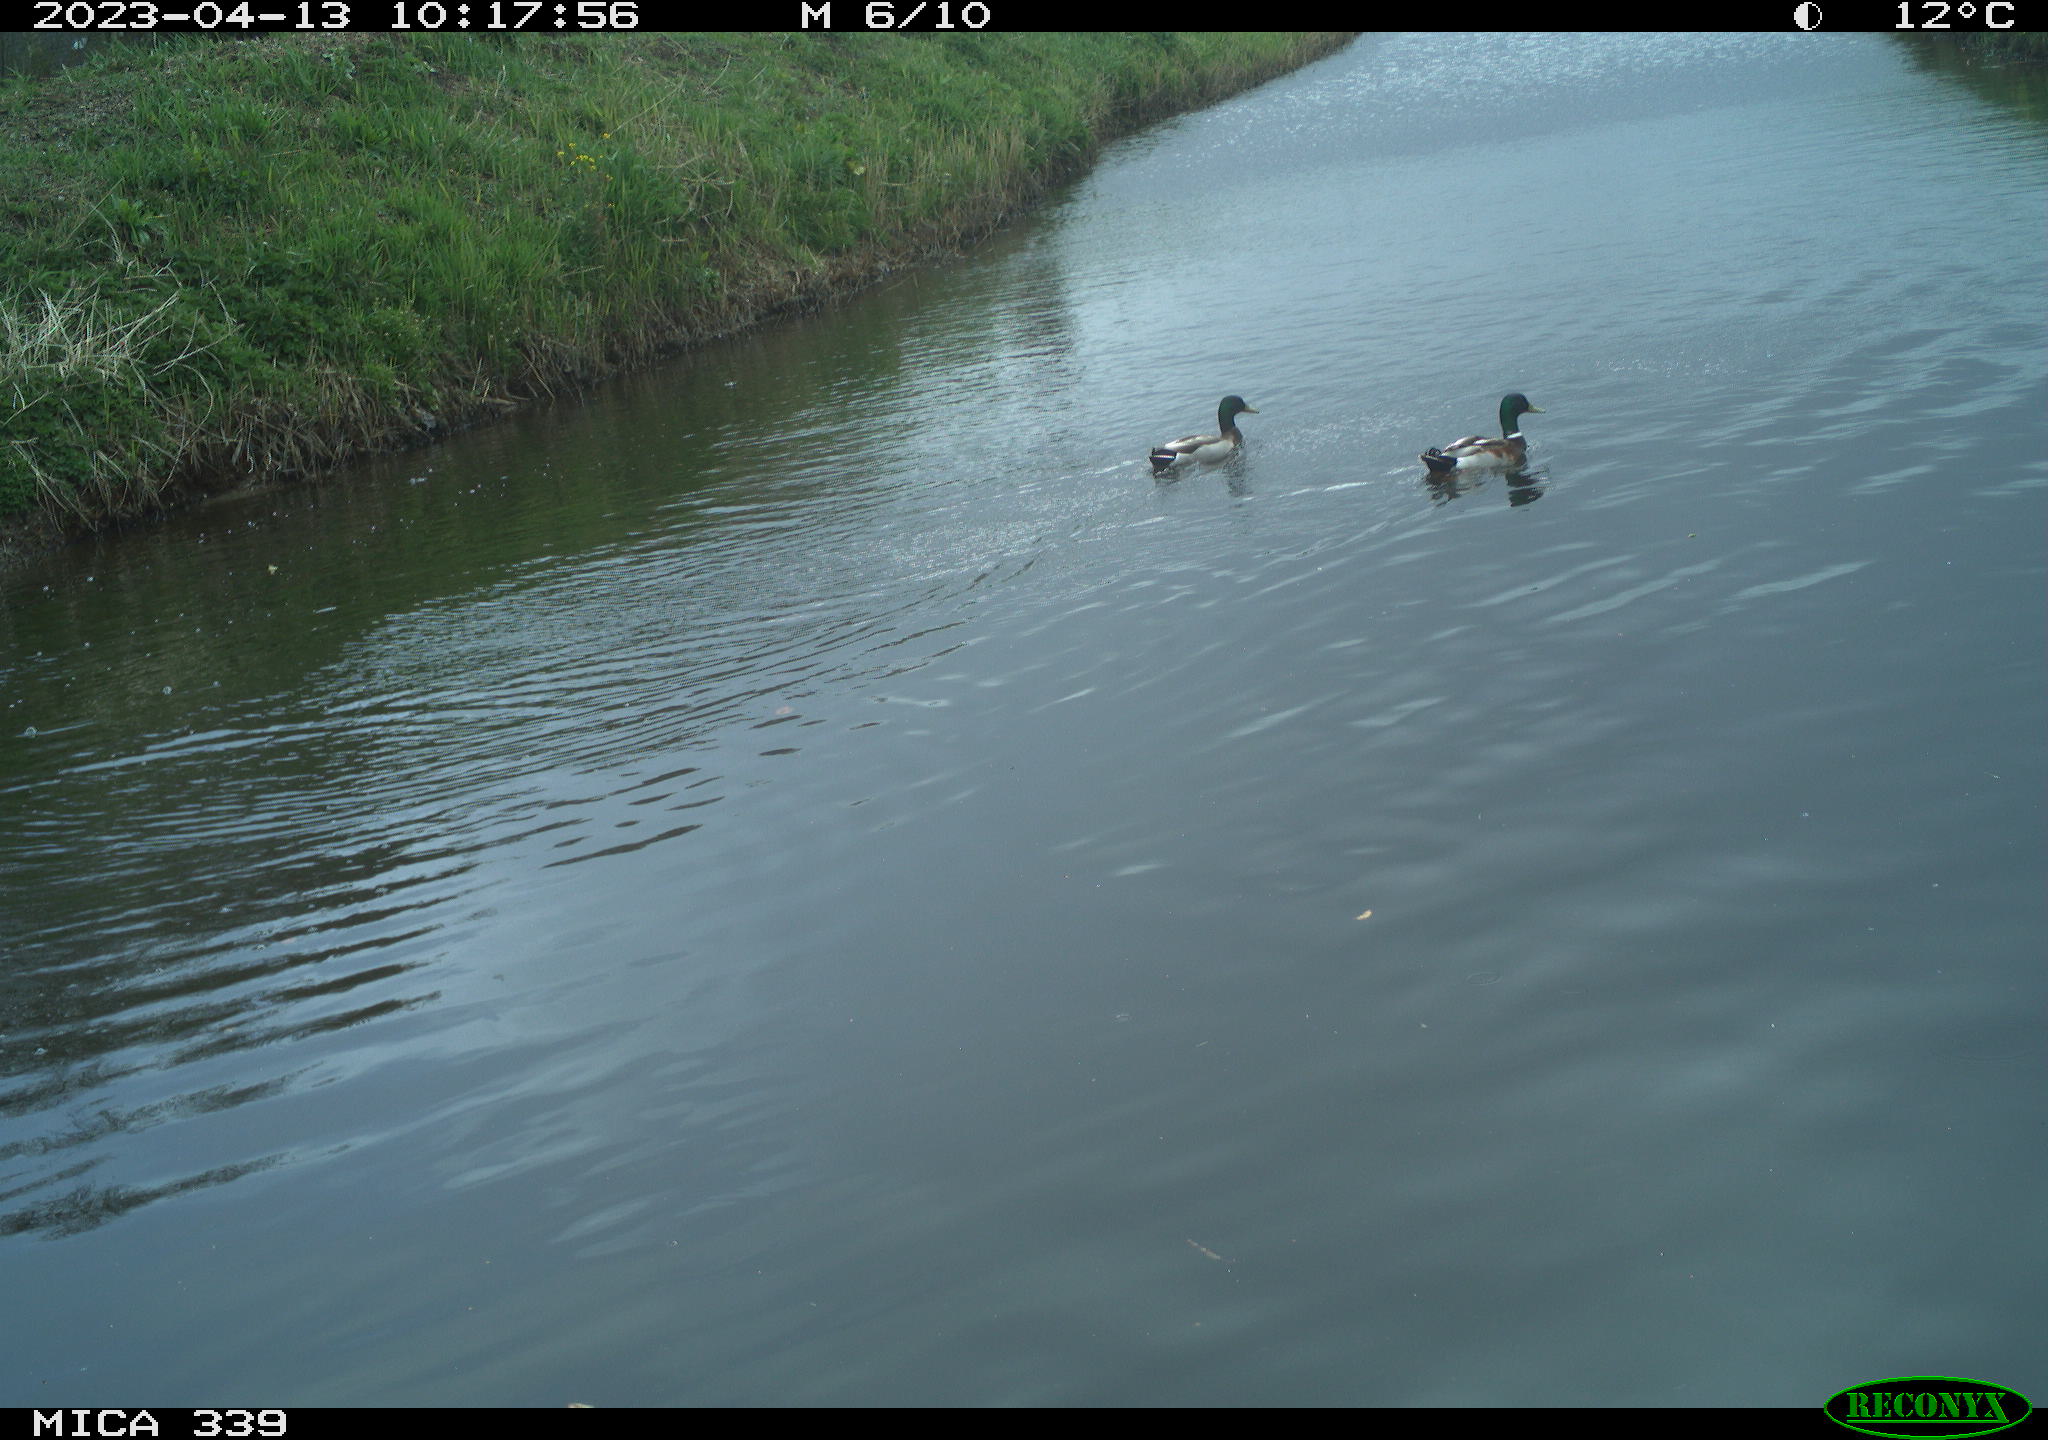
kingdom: Animalia
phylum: Chordata
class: Aves
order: Anseriformes
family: Anatidae
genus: Anas
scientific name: Anas
